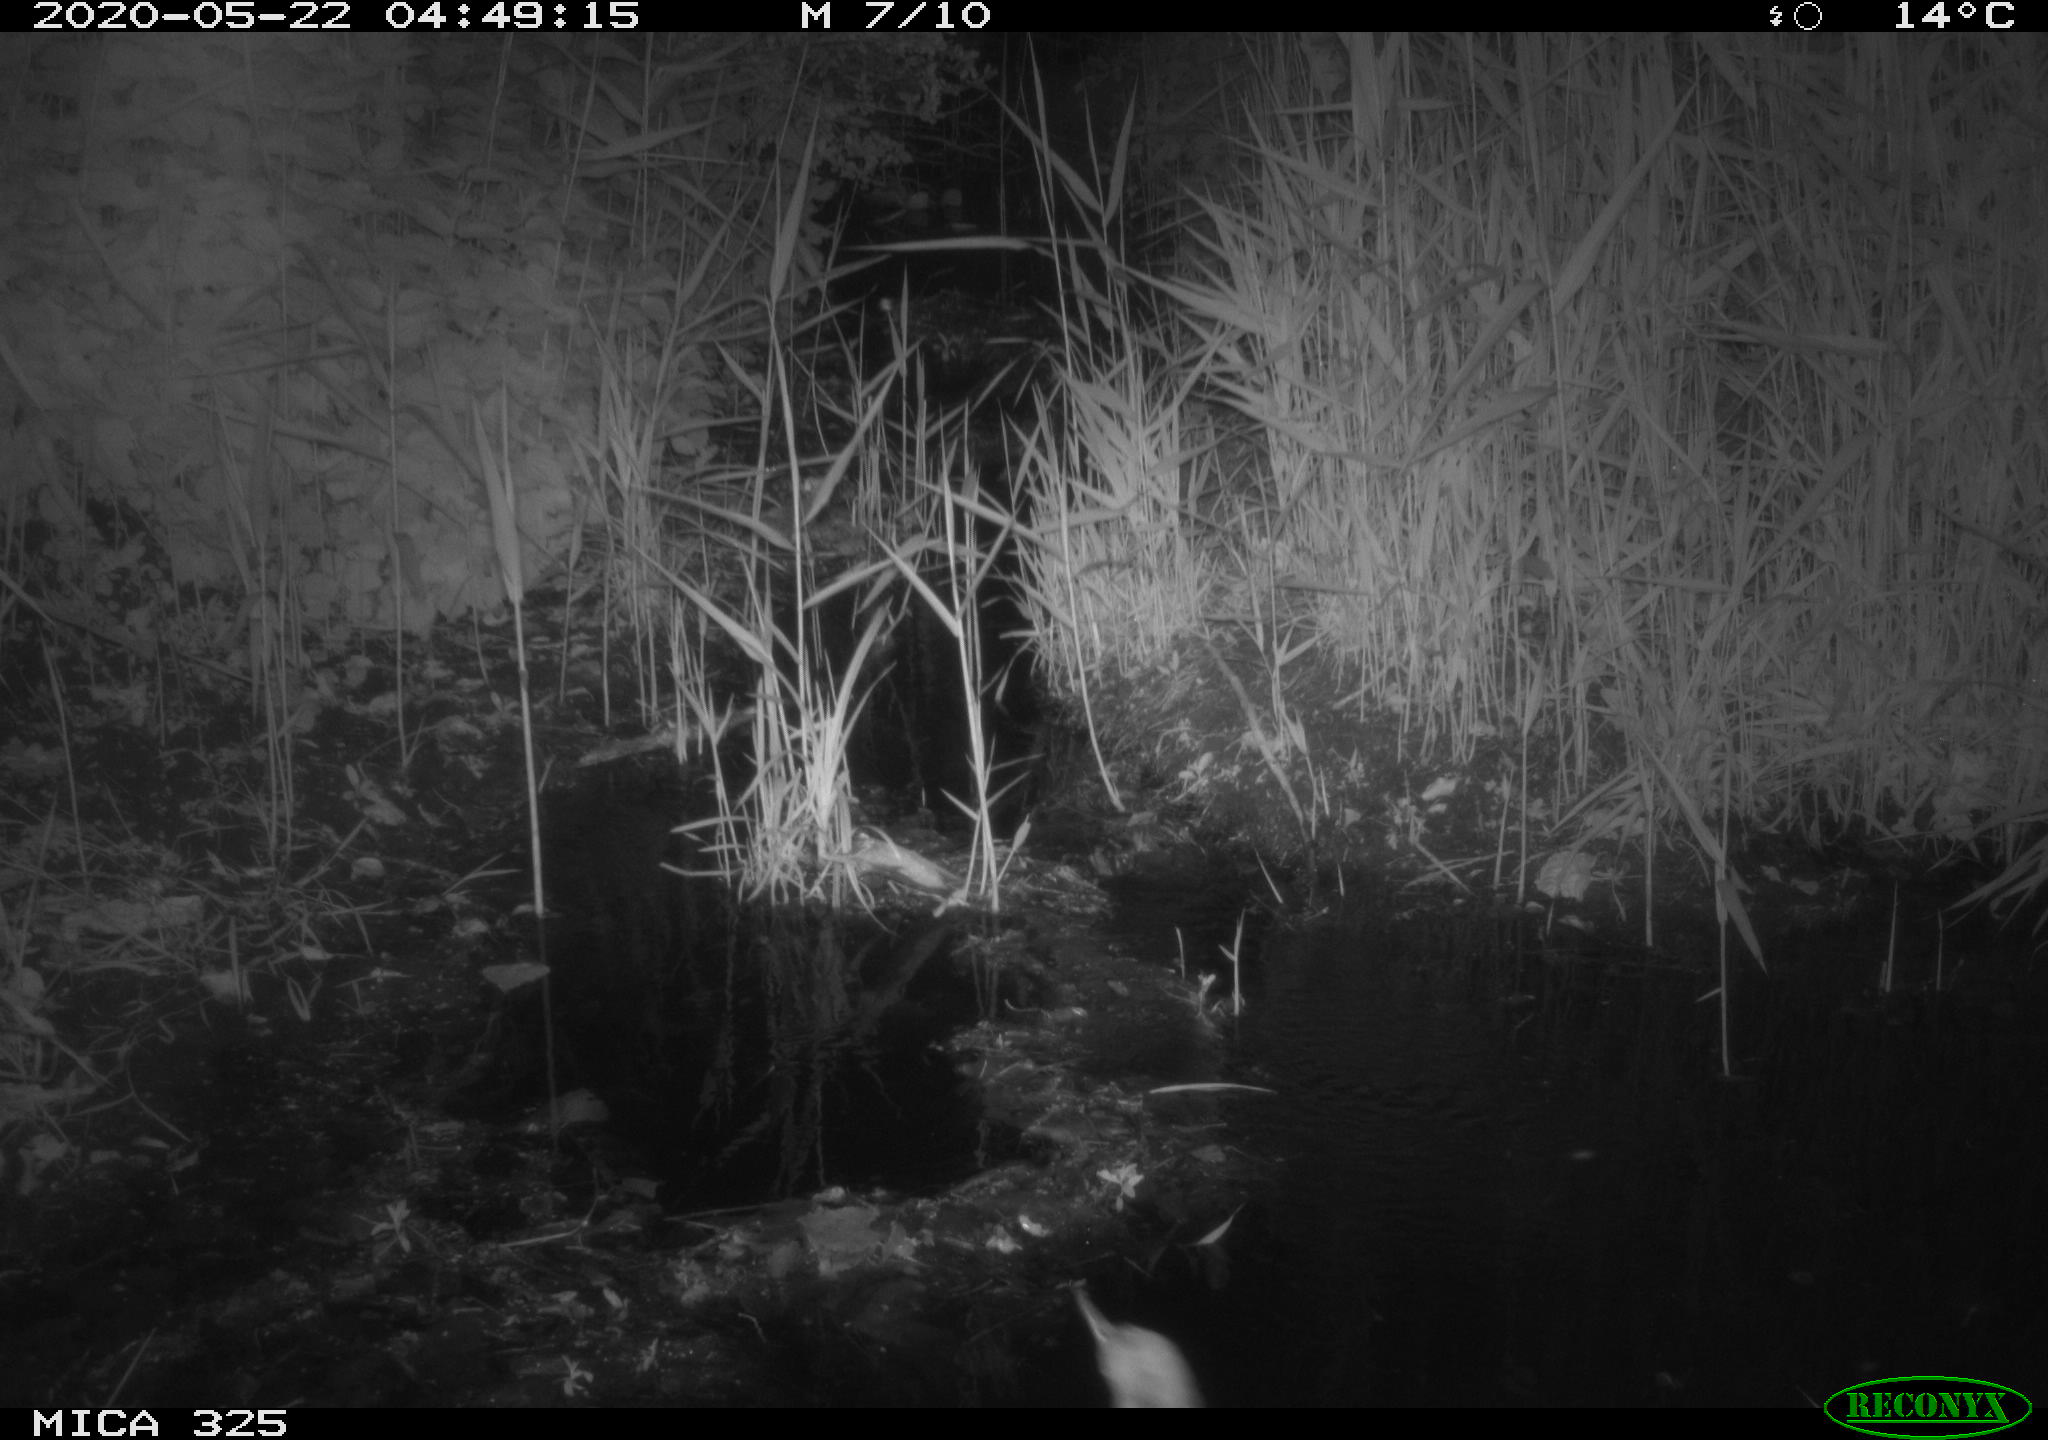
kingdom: Animalia
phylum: Chordata
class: Aves
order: Pelecaniformes
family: Ardeidae
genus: Ardea
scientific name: Ardea cinerea
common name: Grey heron
